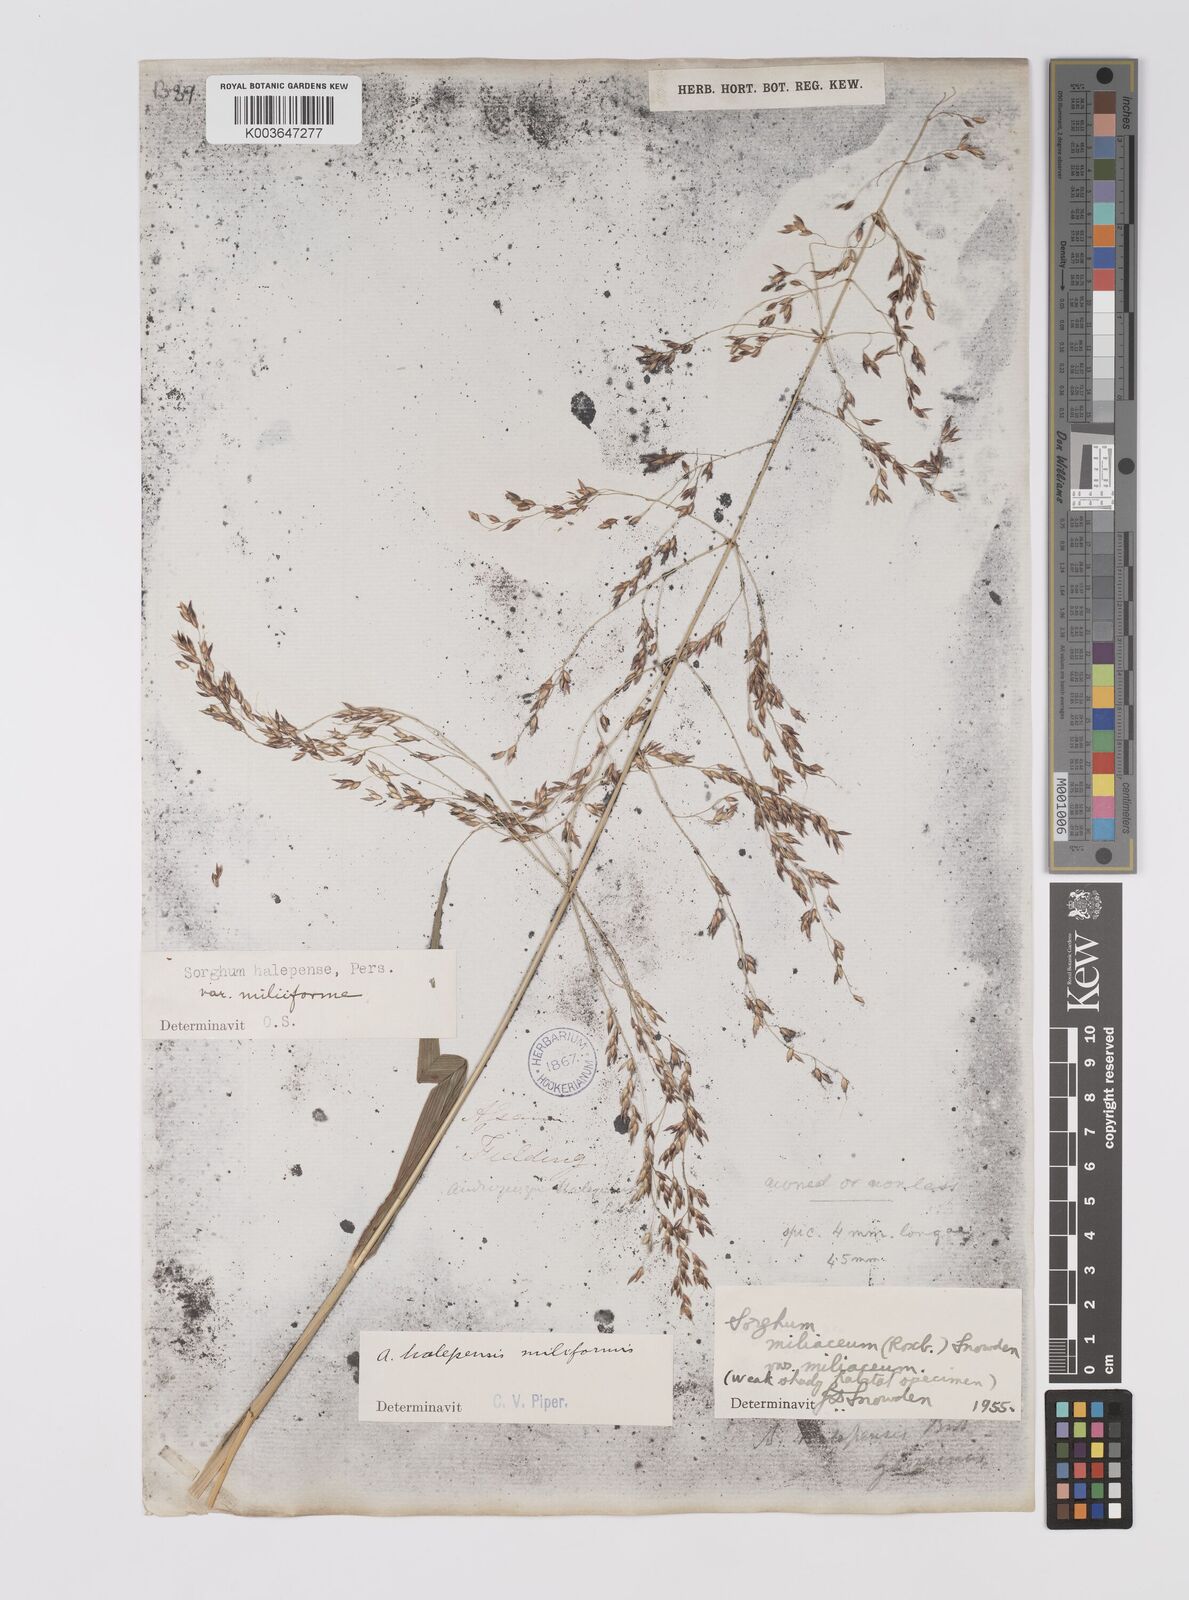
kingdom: Plantae
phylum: Tracheophyta
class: Liliopsida
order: Poales
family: Poaceae
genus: Sorghum
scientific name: Sorghum halepense
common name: Johnson-grass
